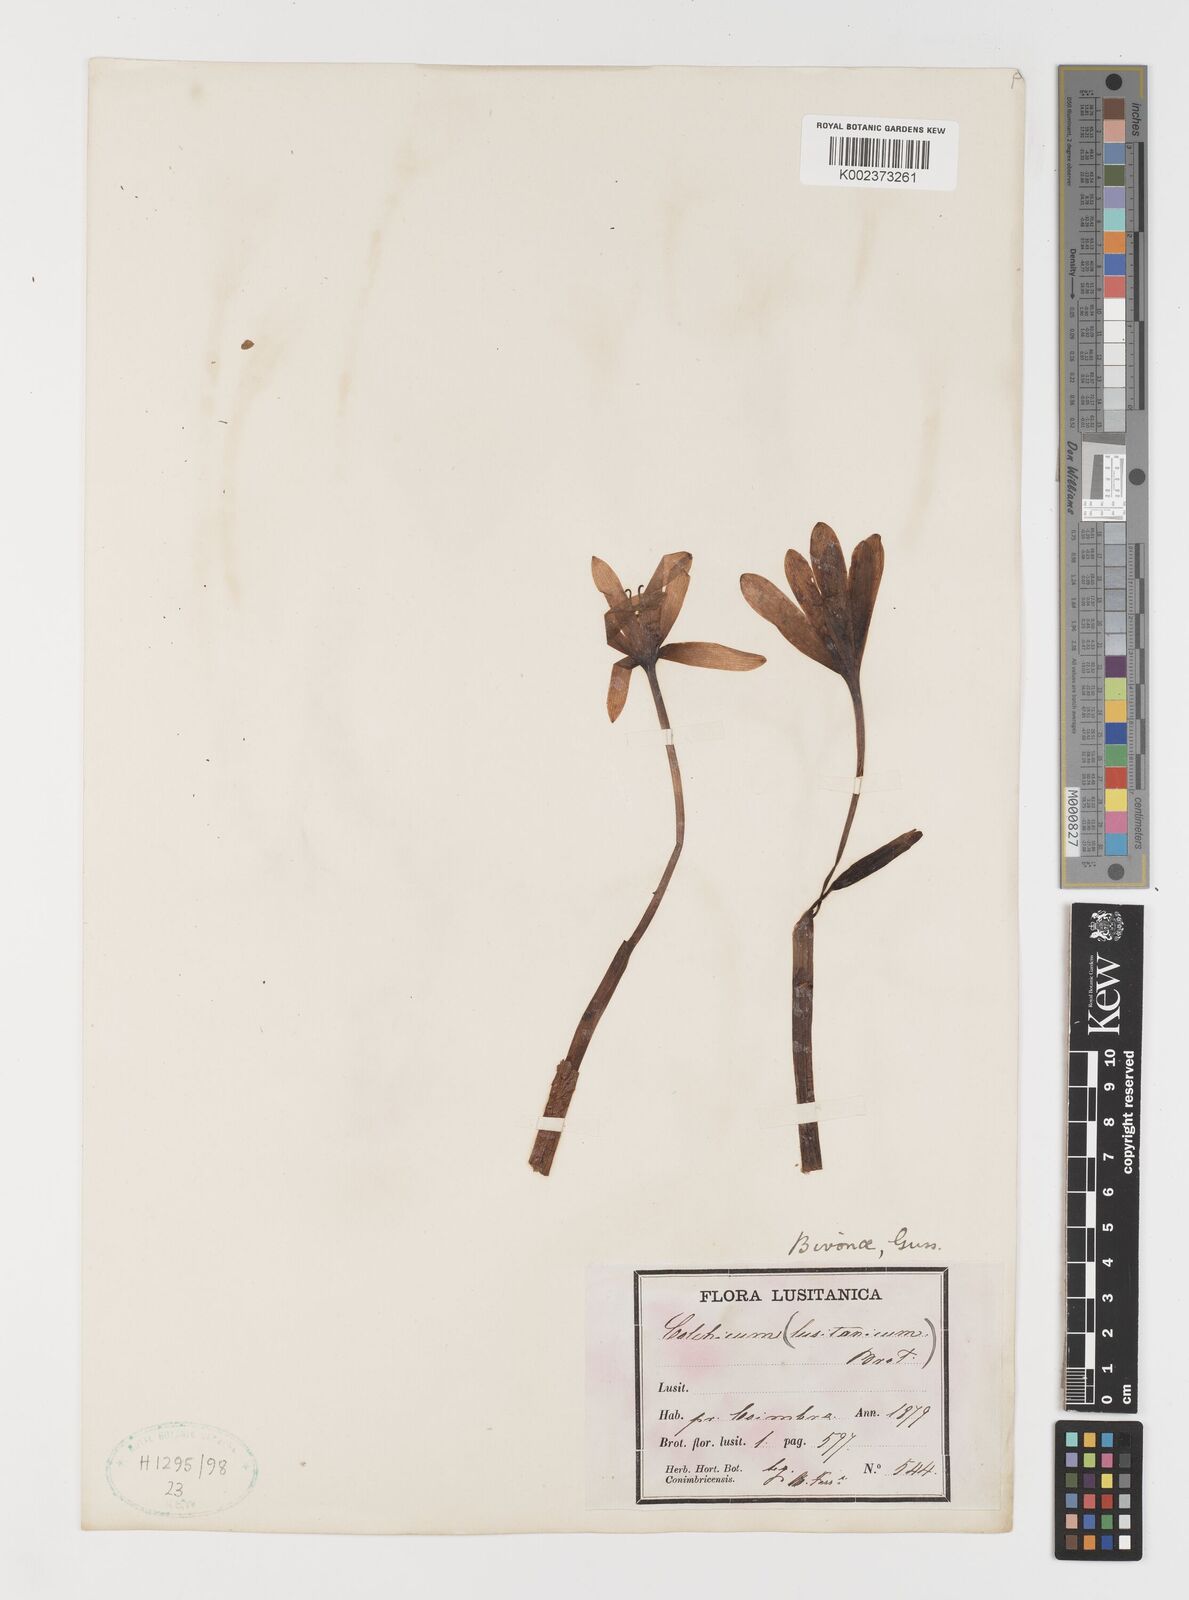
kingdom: Plantae
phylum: Tracheophyta
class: Liliopsida
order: Liliales
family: Colchicaceae
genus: Colchicum
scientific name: Colchicum lusitanum
